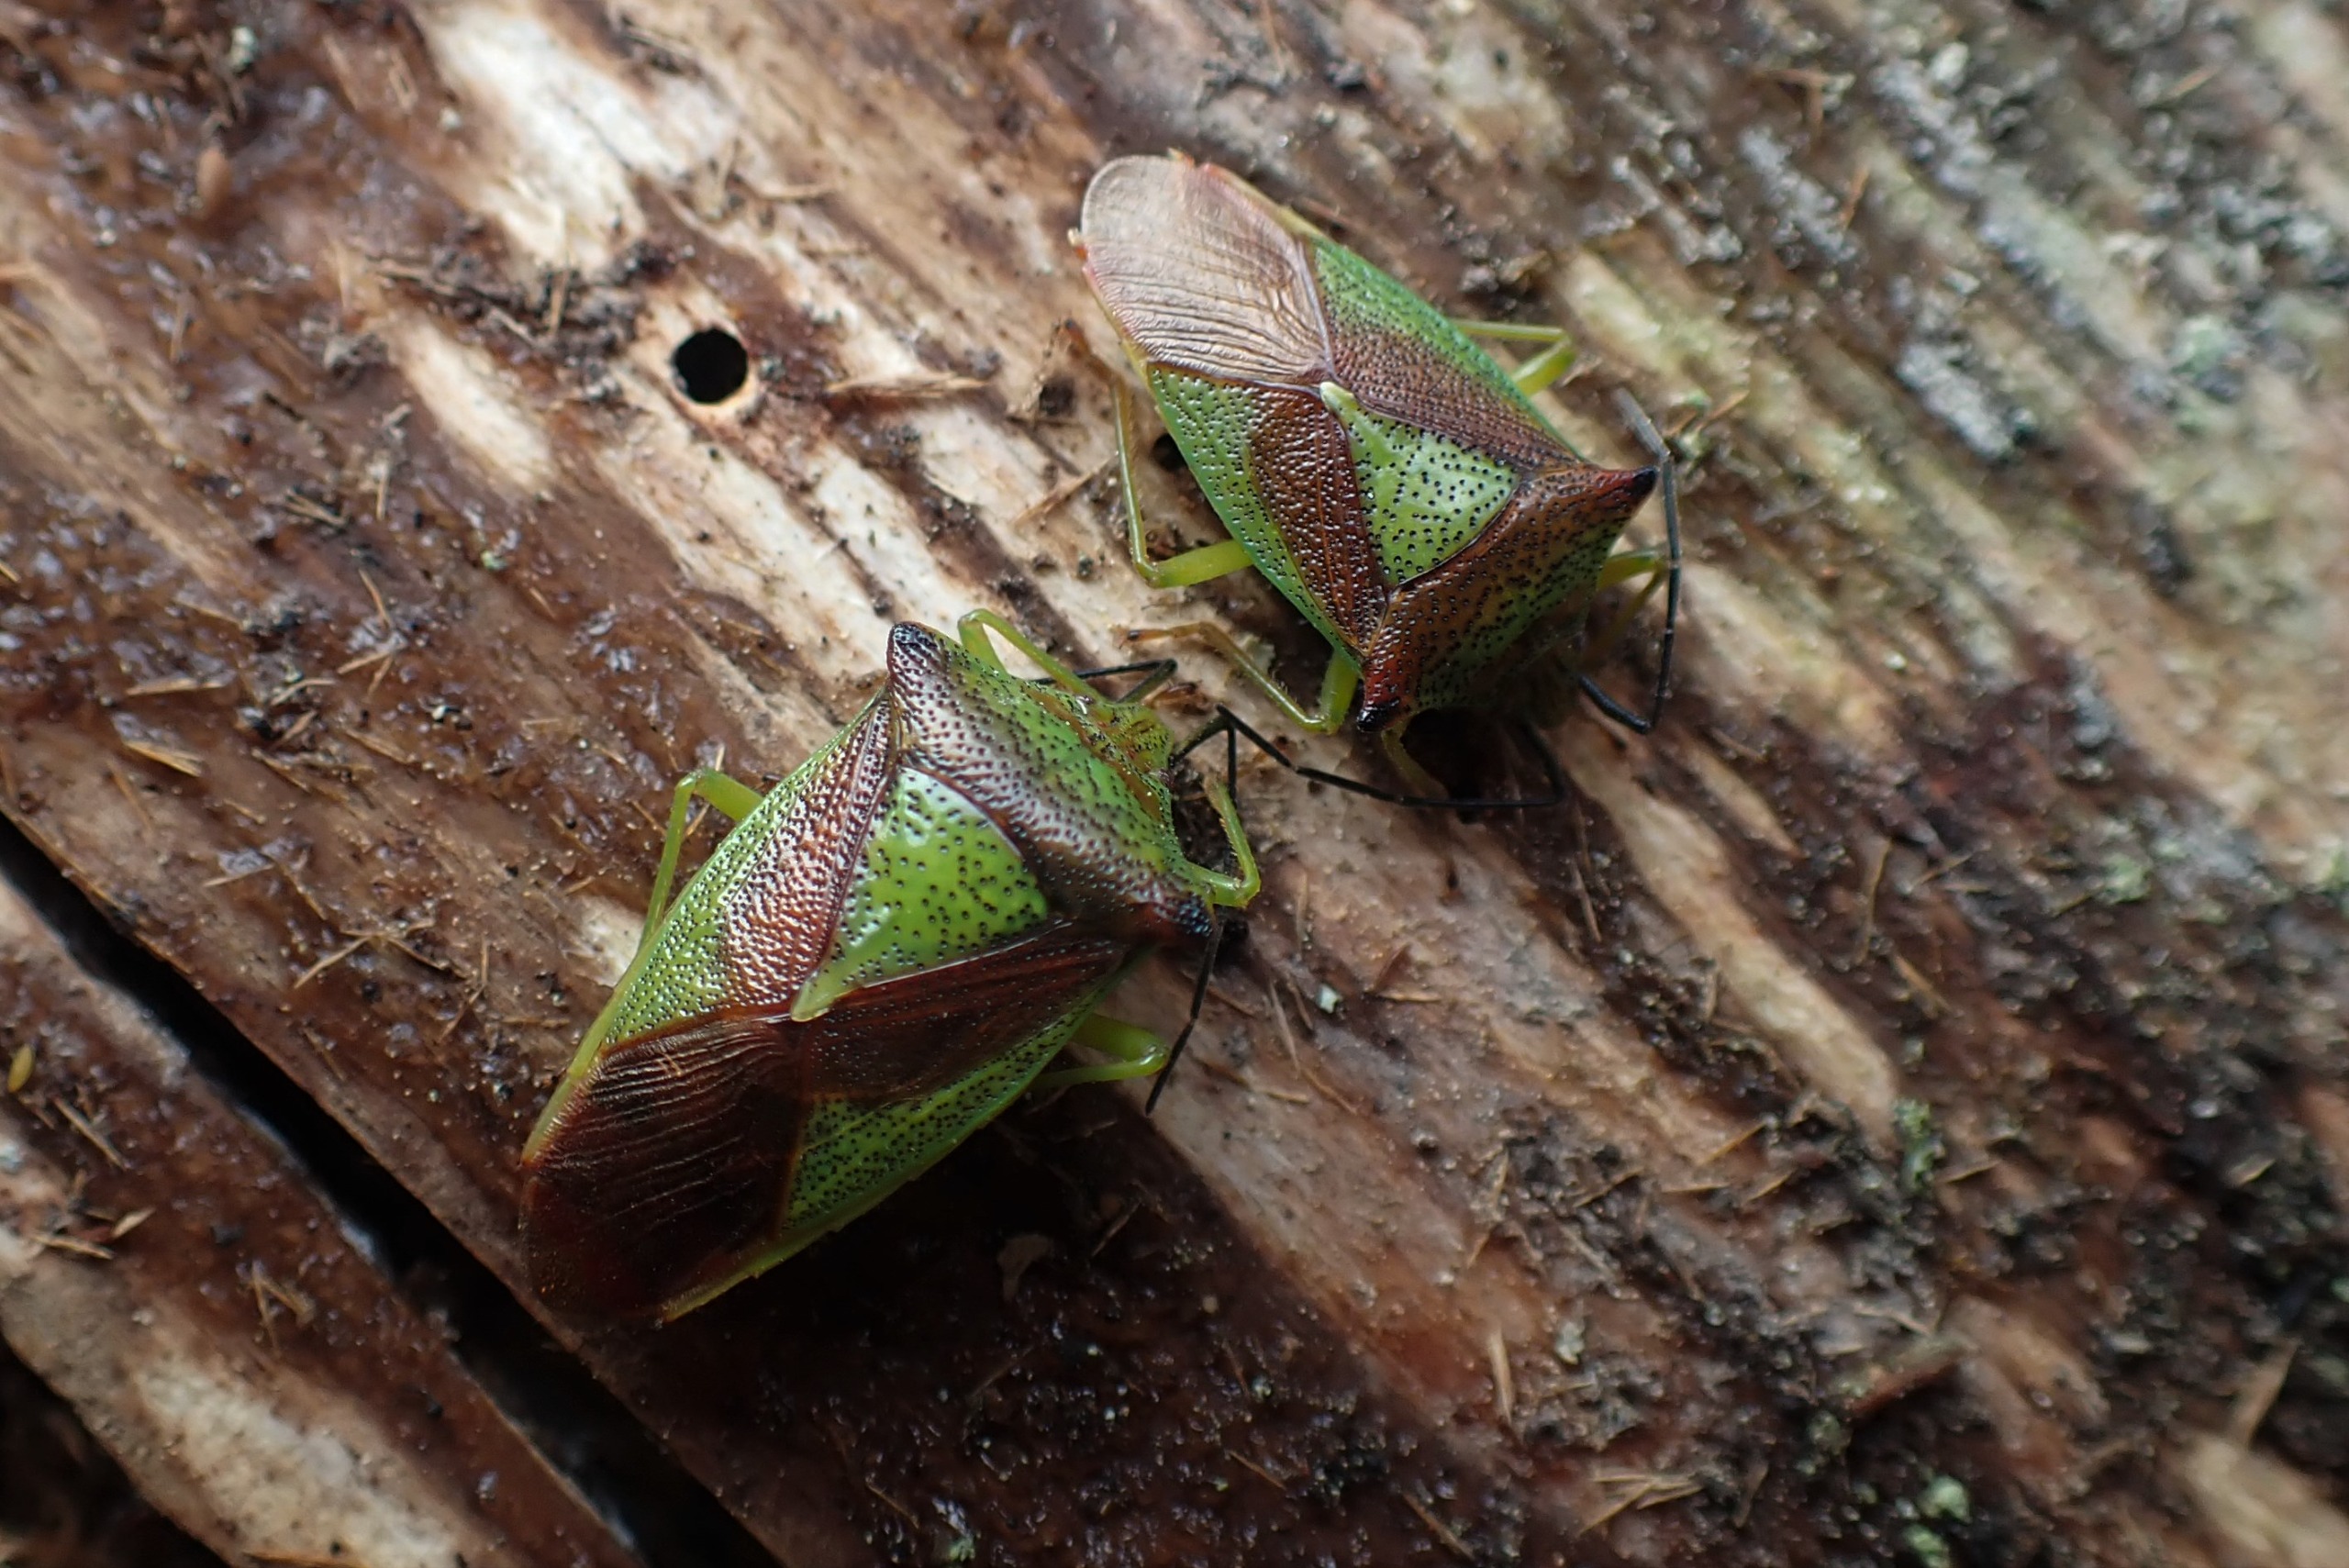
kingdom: Animalia
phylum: Arthropoda
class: Insecta
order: Hemiptera
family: Acanthosomatidae
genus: Acanthosoma
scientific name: Acanthosoma haemorrhoidale
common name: Stor løvtæge
